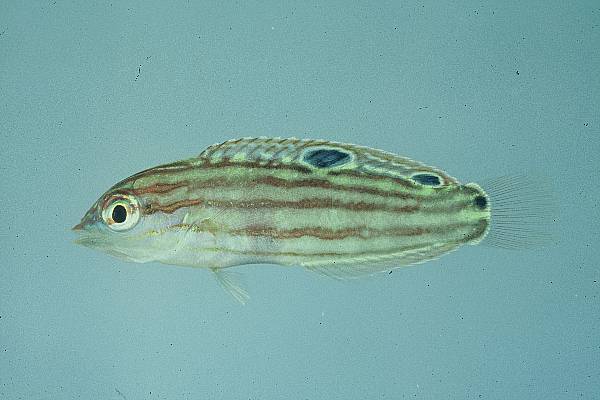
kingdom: Animalia
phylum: Chordata
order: Perciformes
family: Labridae
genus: Halichoeres
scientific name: Halichoeres cosmetus
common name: Adorned wrasse
